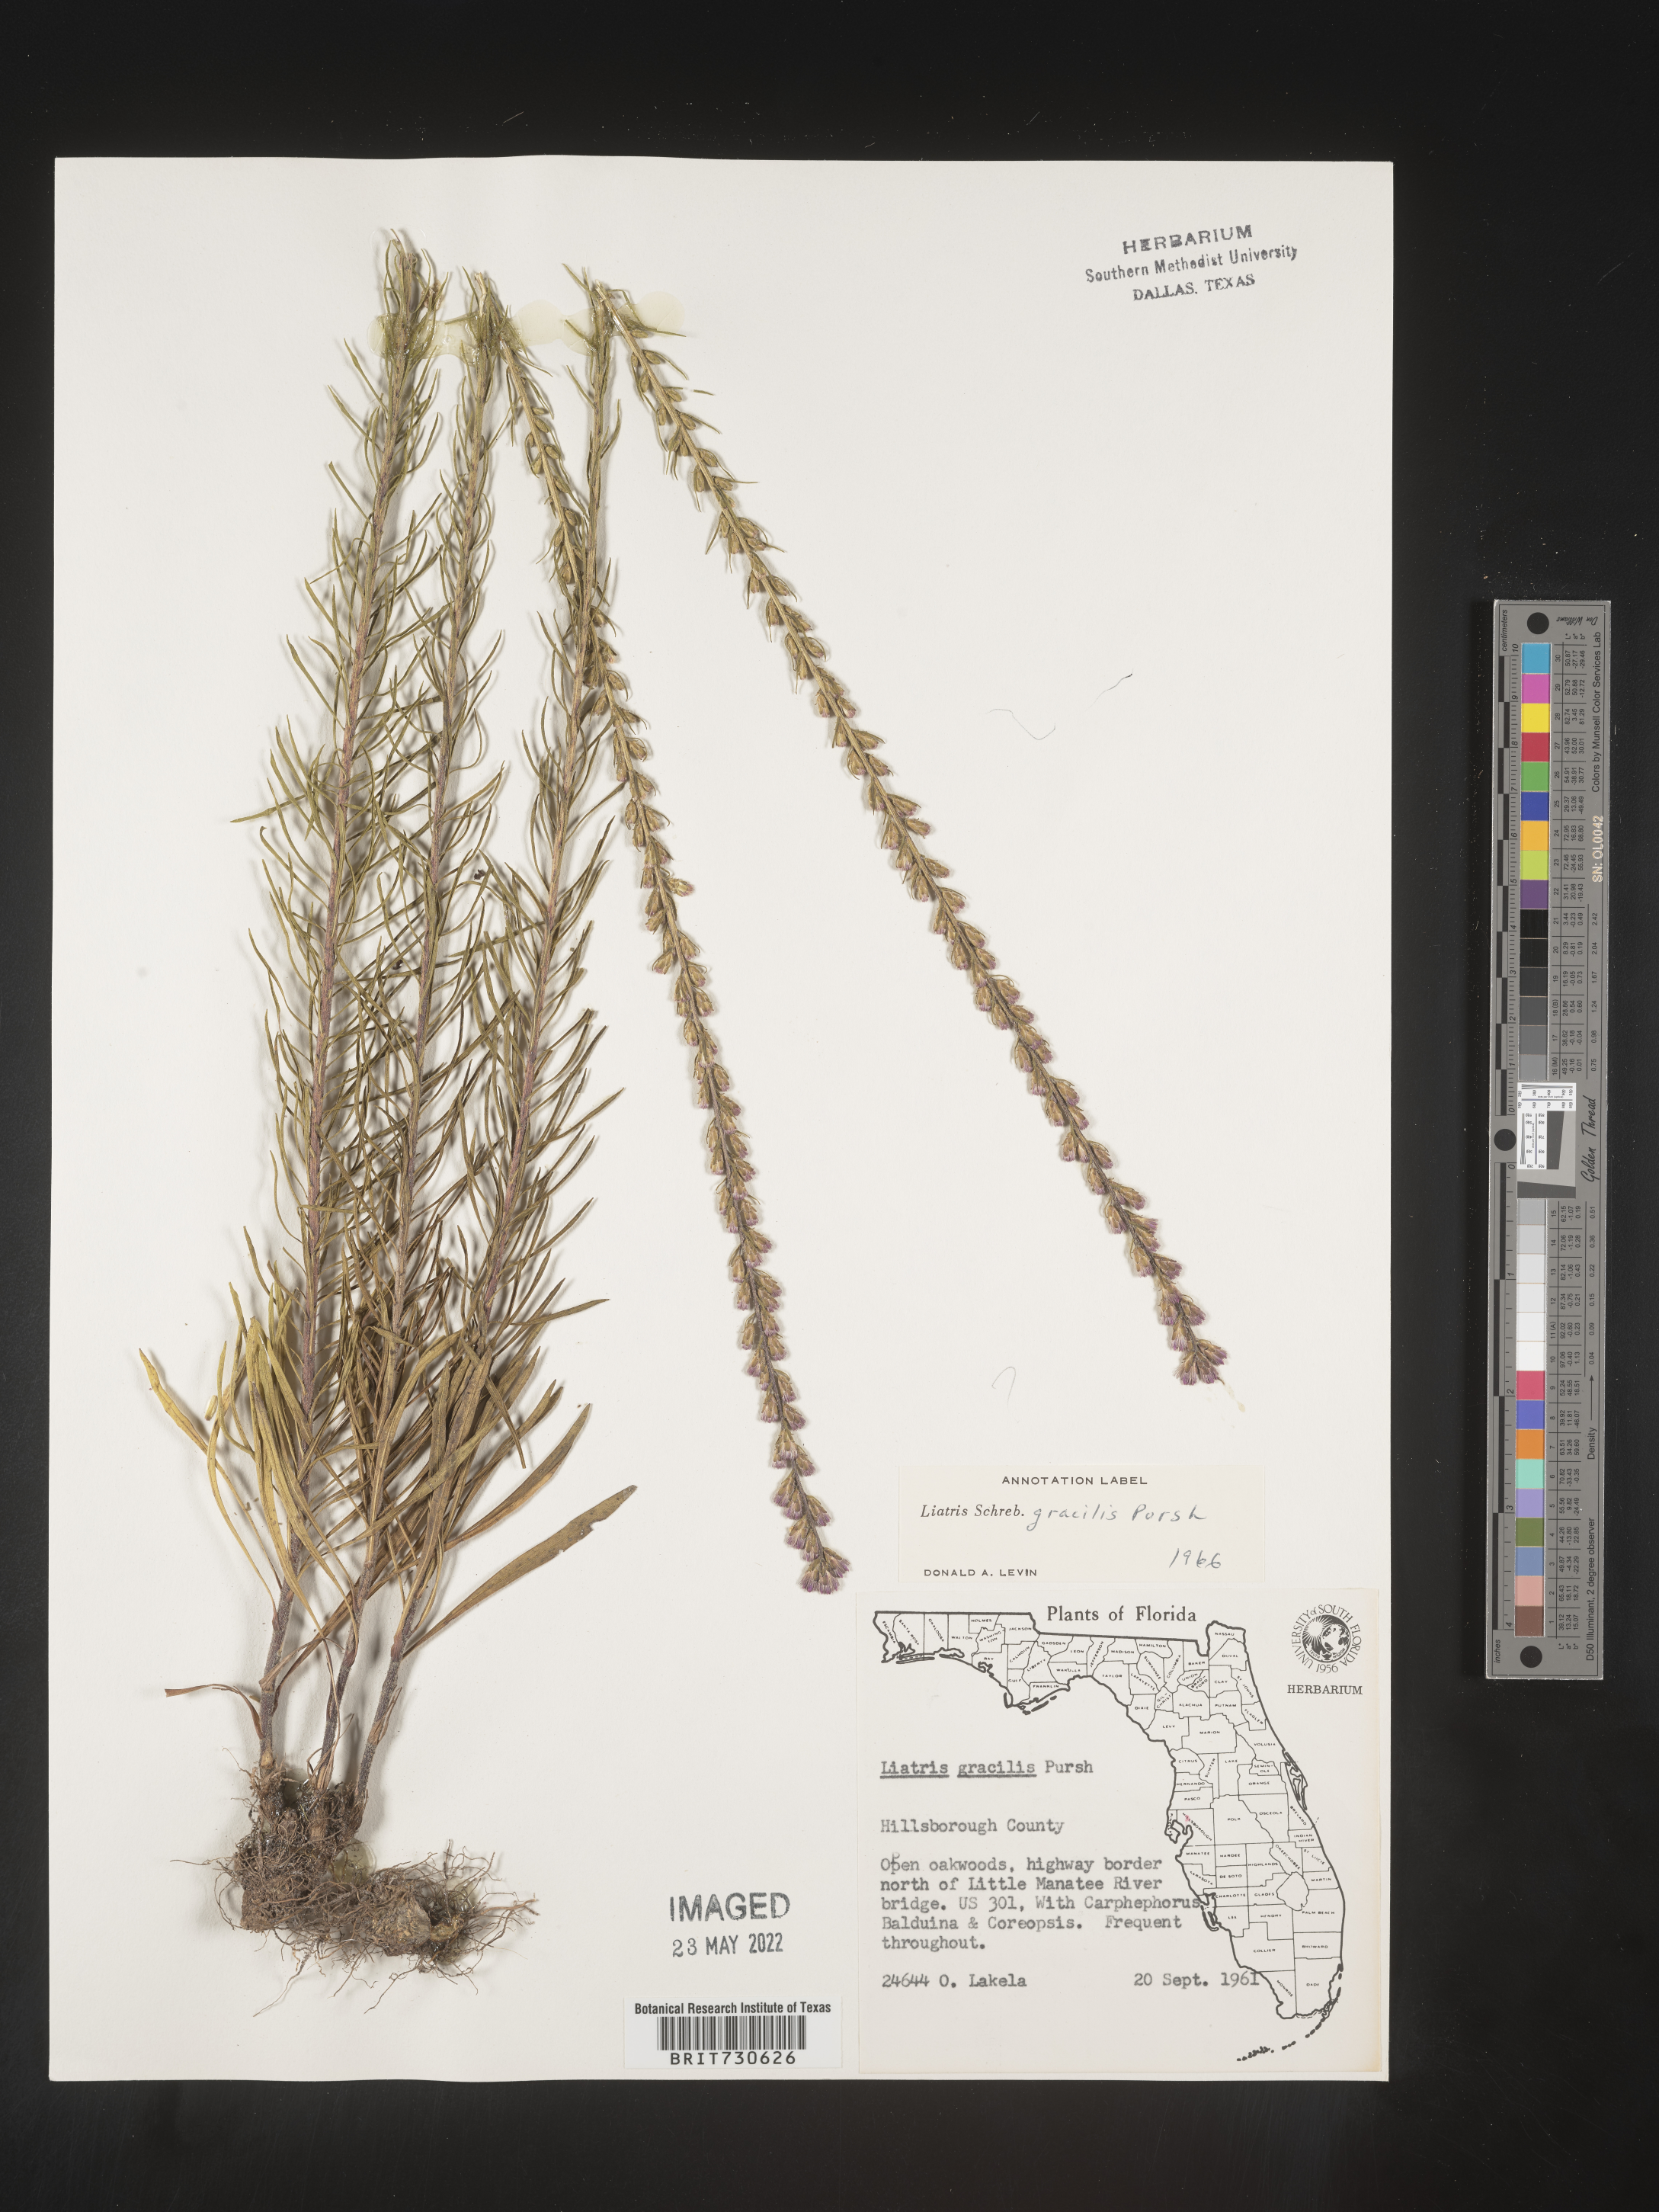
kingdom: Plantae
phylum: Tracheophyta
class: Magnoliopsida
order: Asterales
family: Asteraceae
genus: Liatris
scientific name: Liatris gracilis
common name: Slender gayfeather
